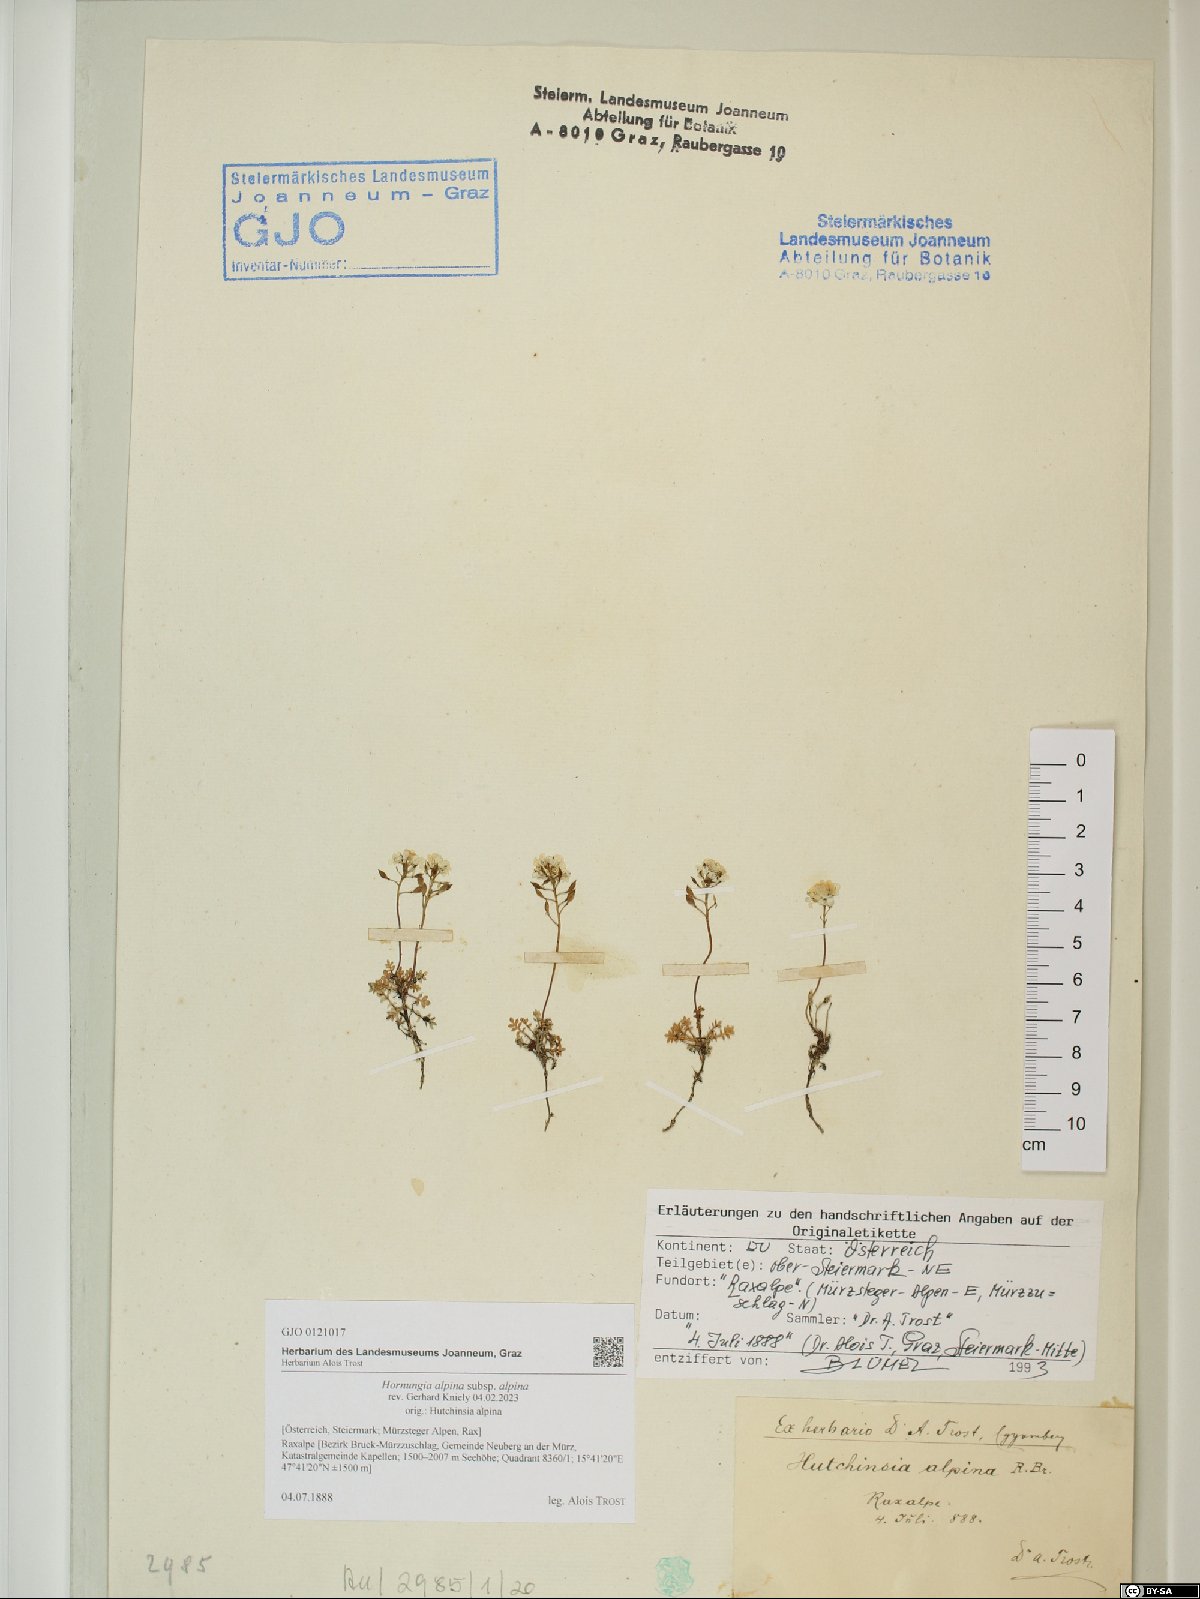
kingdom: Plantae
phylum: Tracheophyta
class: Magnoliopsida
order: Brassicales
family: Brassicaceae
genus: Hornungia
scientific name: Hornungia alpina
